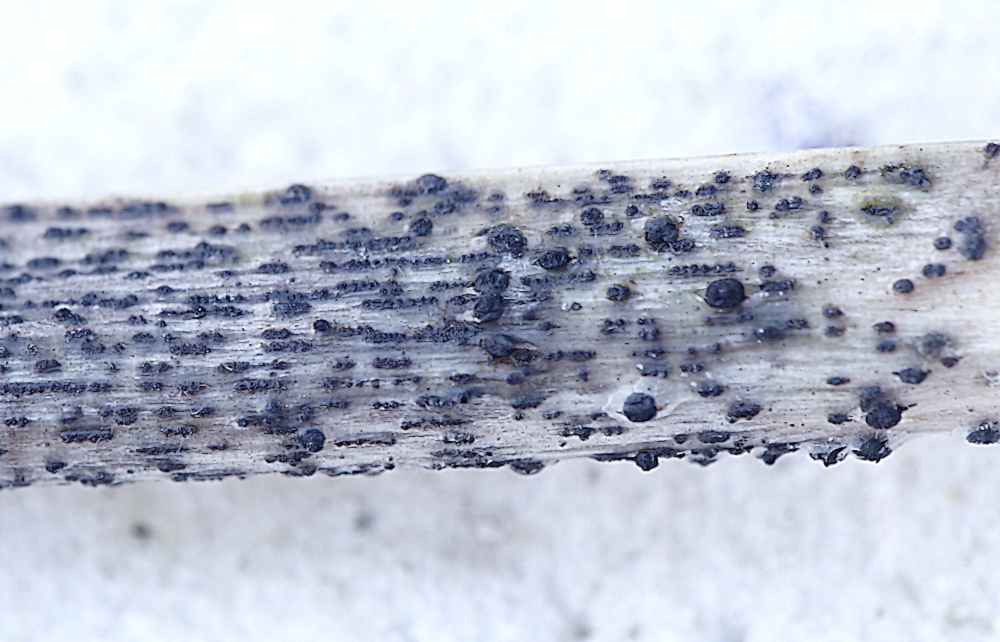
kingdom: Fungi
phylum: Ascomycota
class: Dothideomycetes
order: Pleosporales
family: Tetraplosphaeriaceae
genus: Tetraploa
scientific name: Tetraploa aristata
